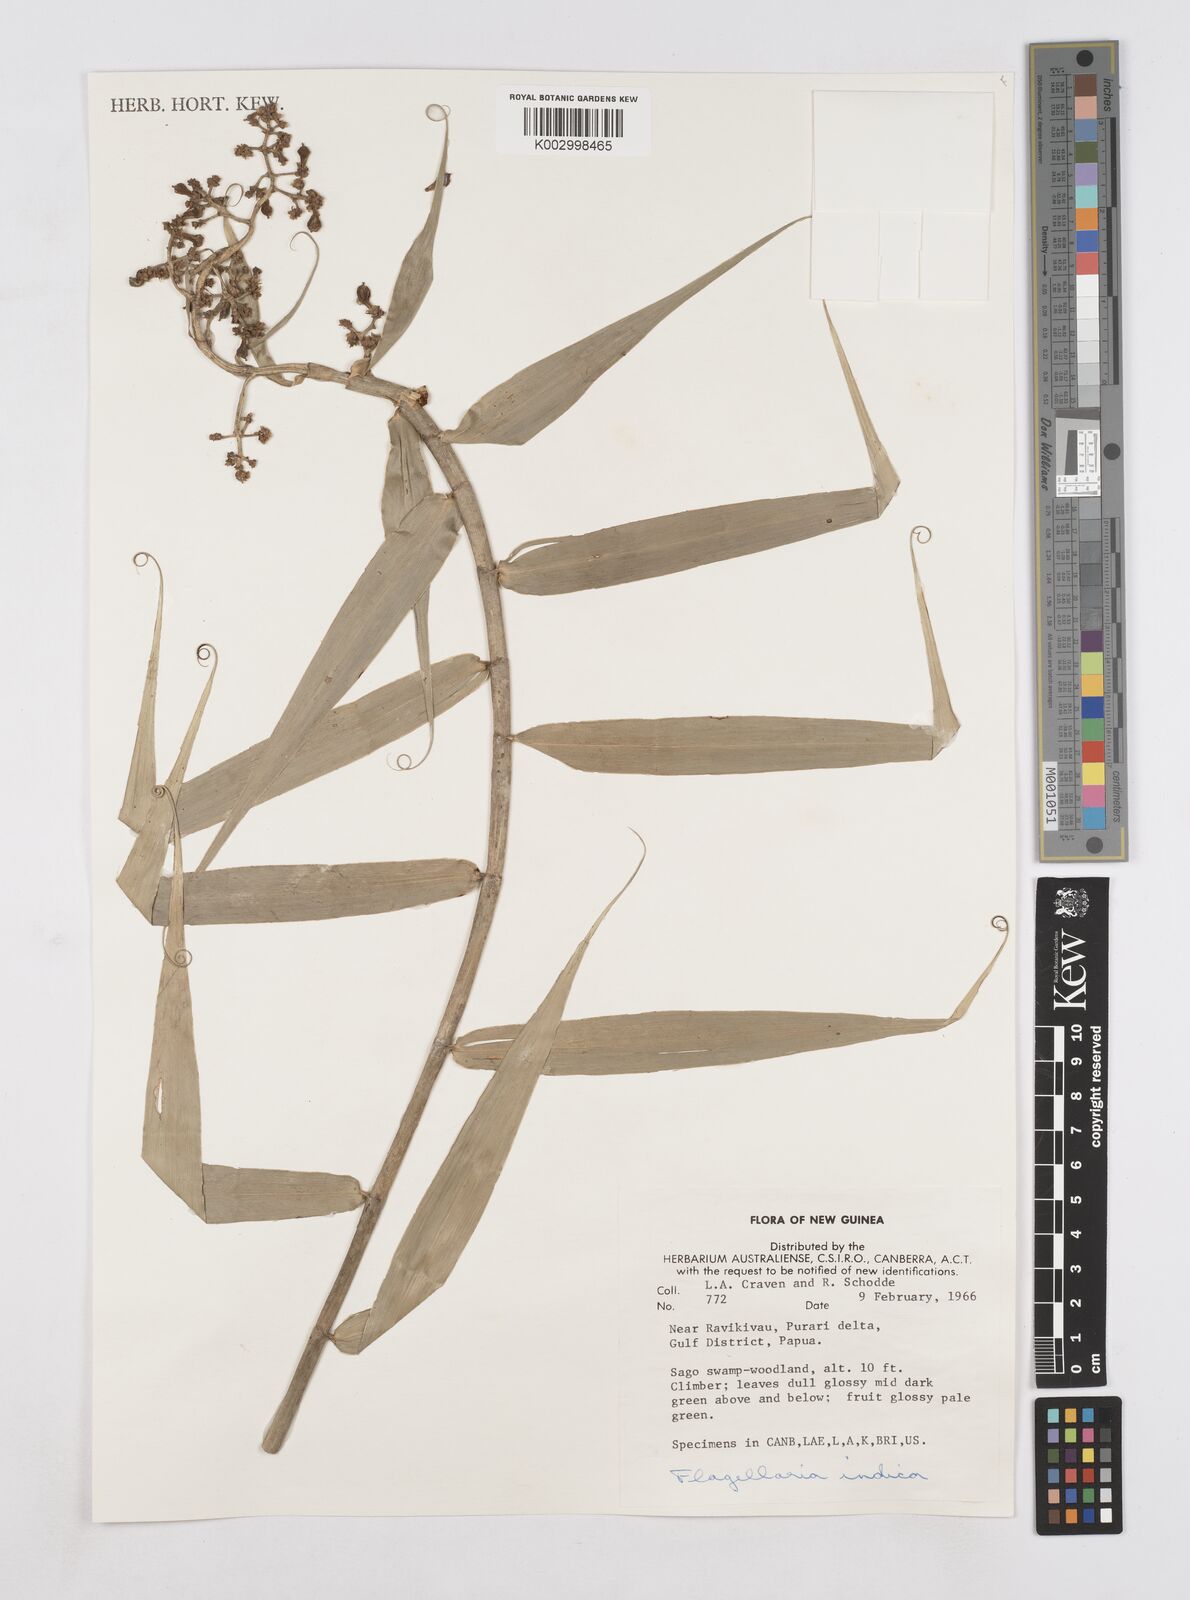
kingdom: Plantae
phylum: Tracheophyta
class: Liliopsida
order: Poales
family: Flagellariaceae
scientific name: Flagellariaceae
